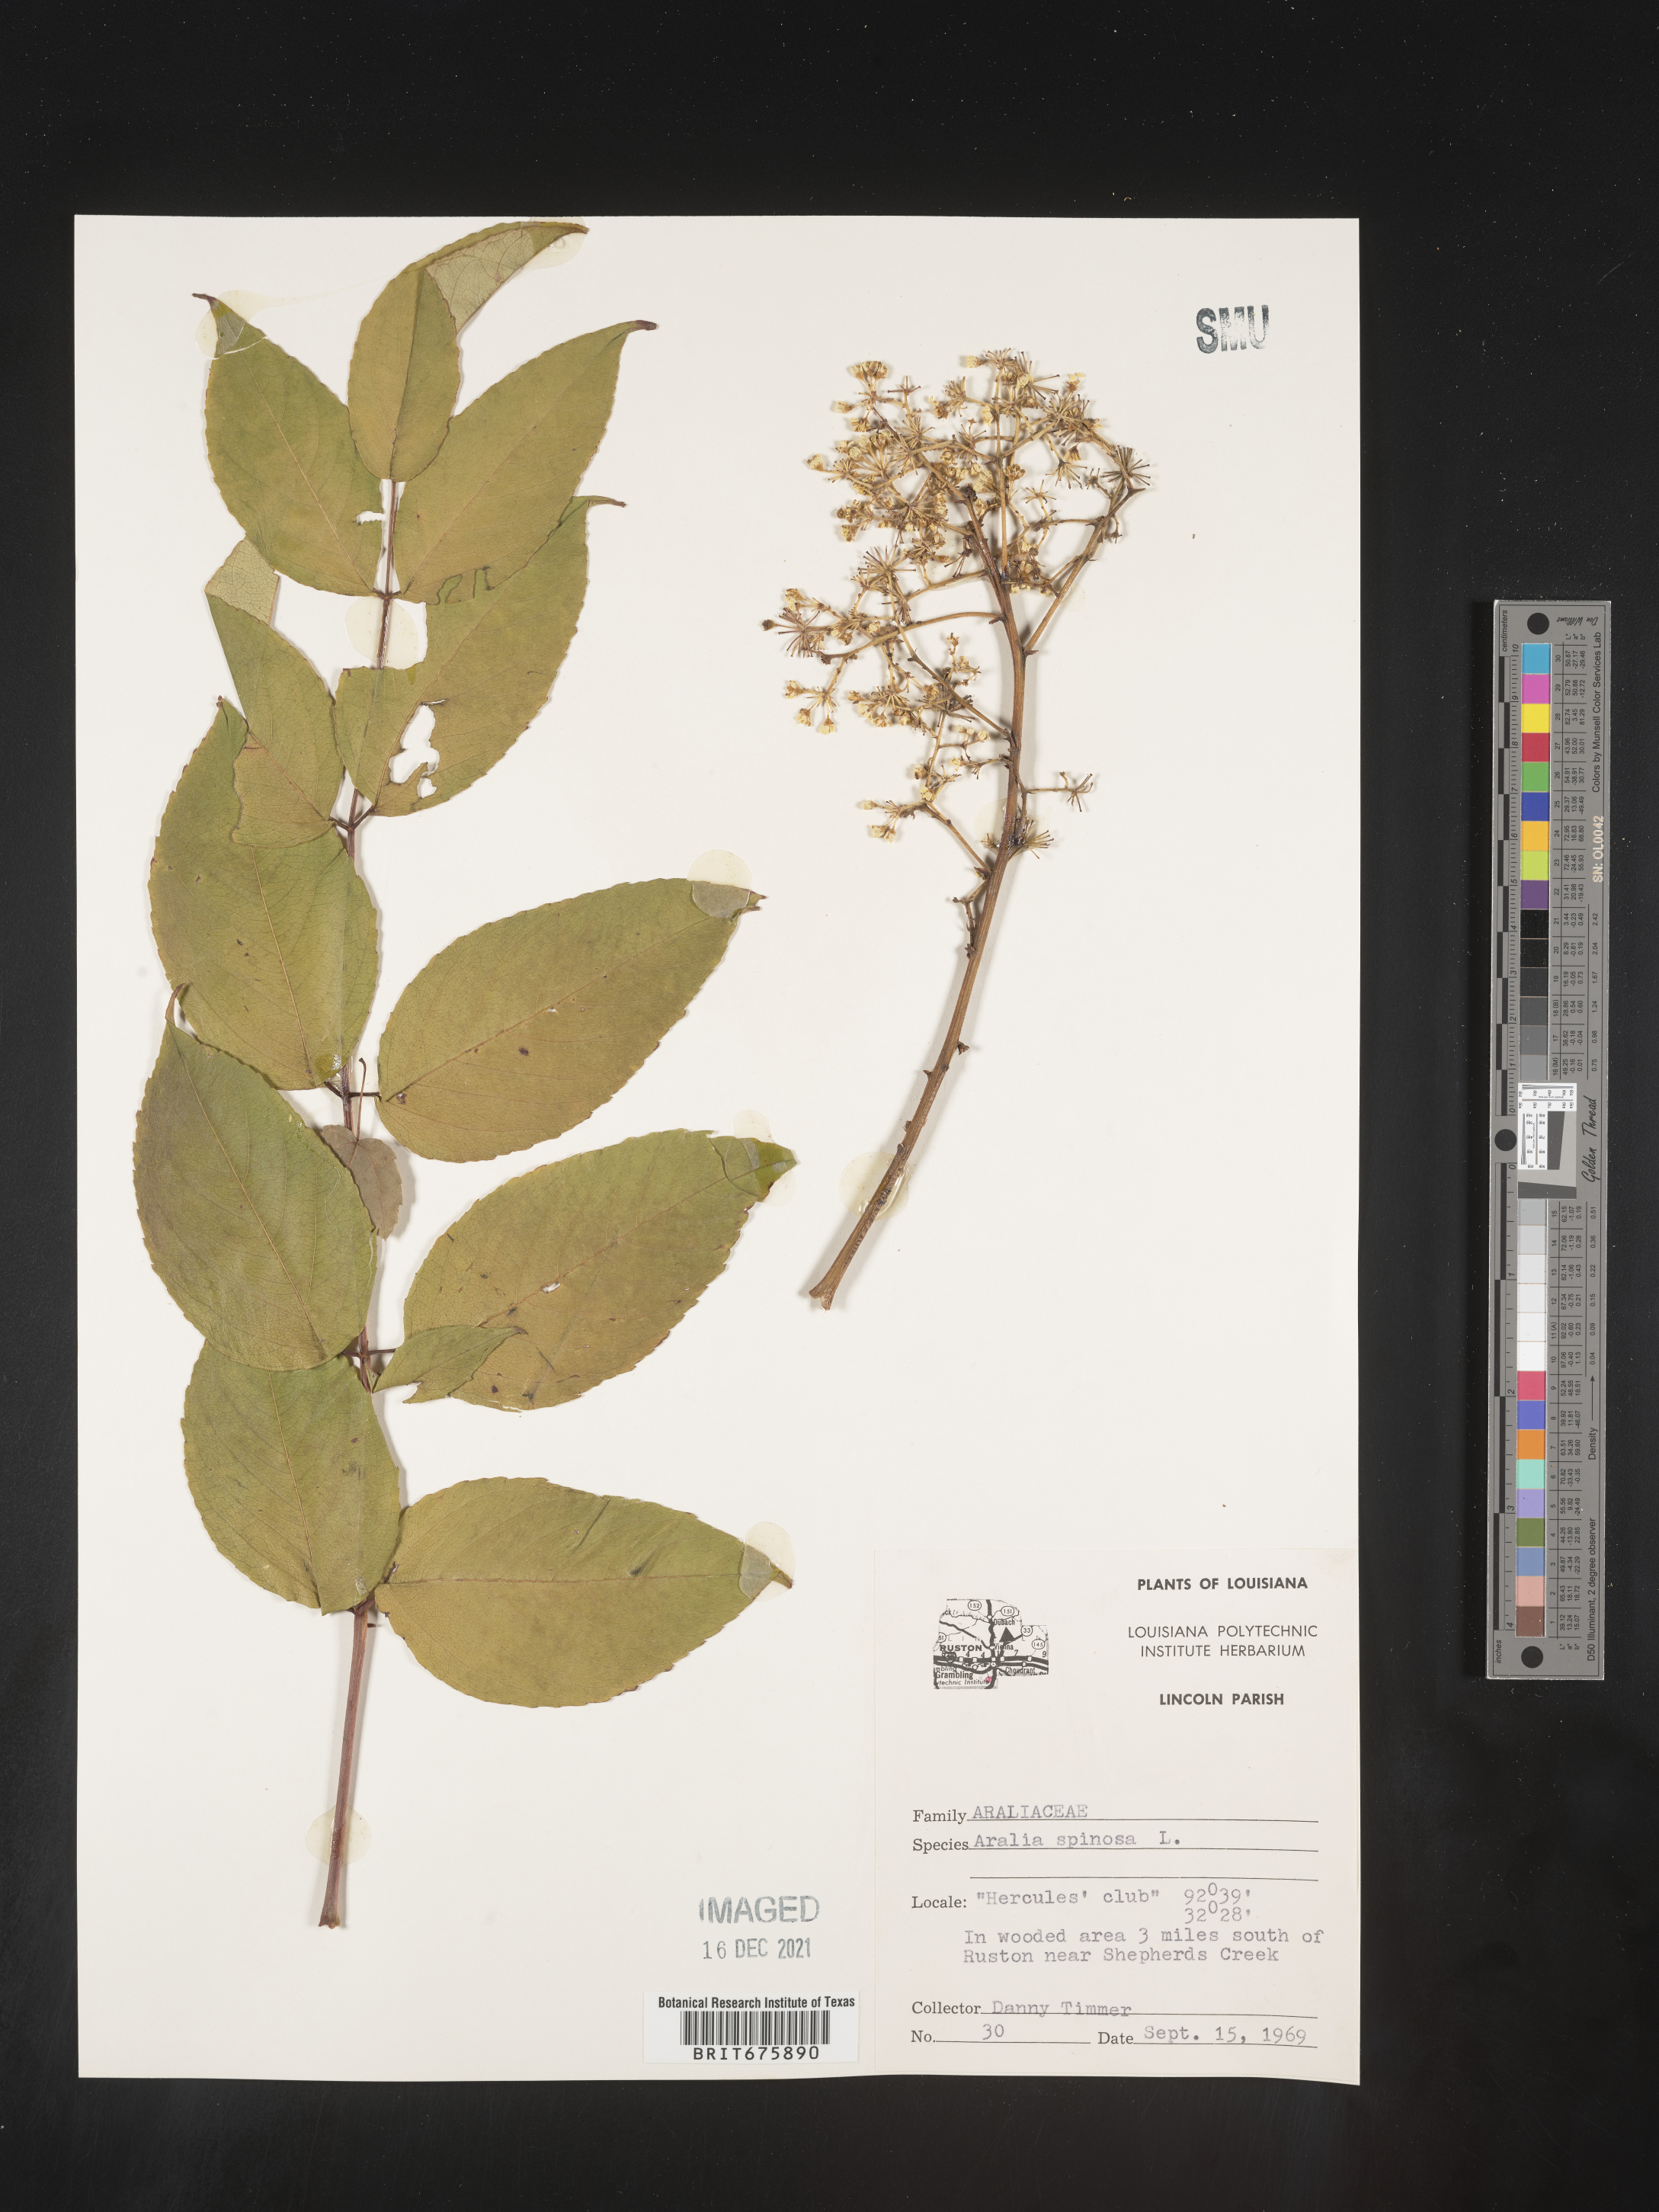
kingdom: Plantae
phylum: Tracheophyta
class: Magnoliopsida
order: Apiales
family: Araliaceae
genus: Aralia
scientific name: Aralia spinosa
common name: Hercules'-club
